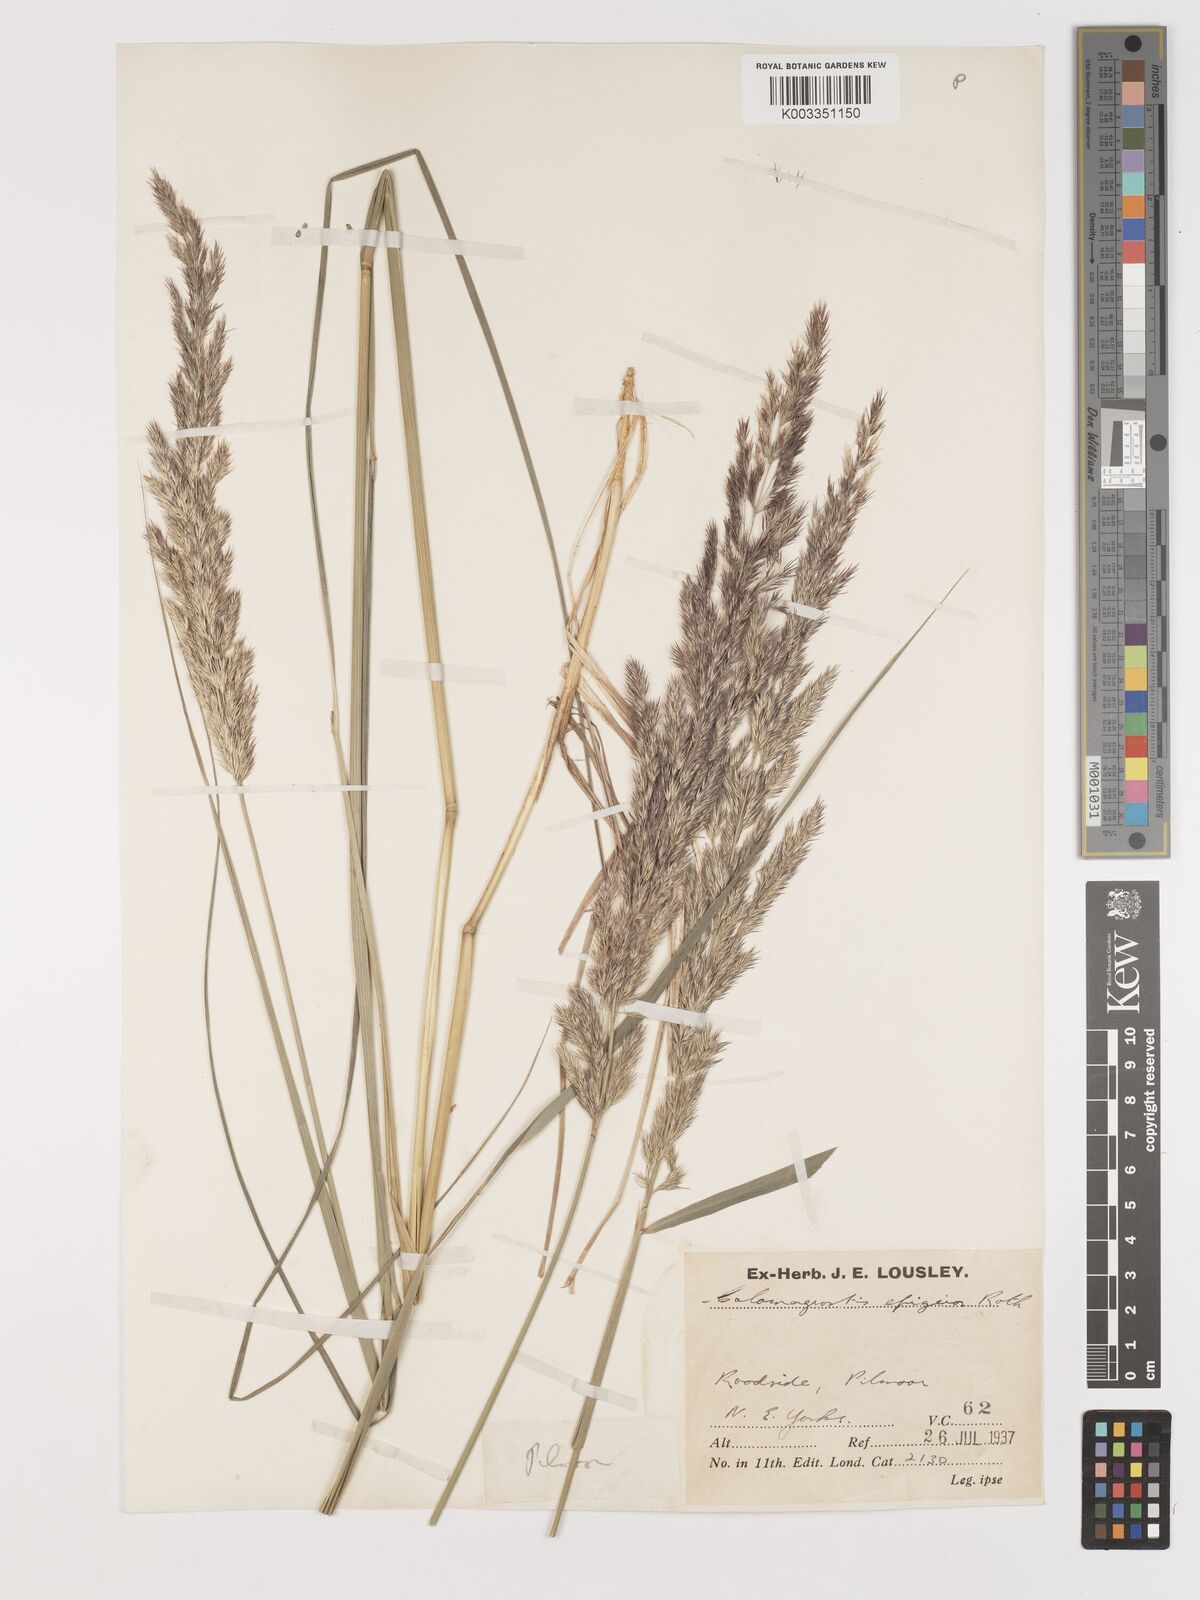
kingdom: Plantae
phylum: Tracheophyta
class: Liliopsida
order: Poales
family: Poaceae
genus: Calamagrostis
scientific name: Calamagrostis
